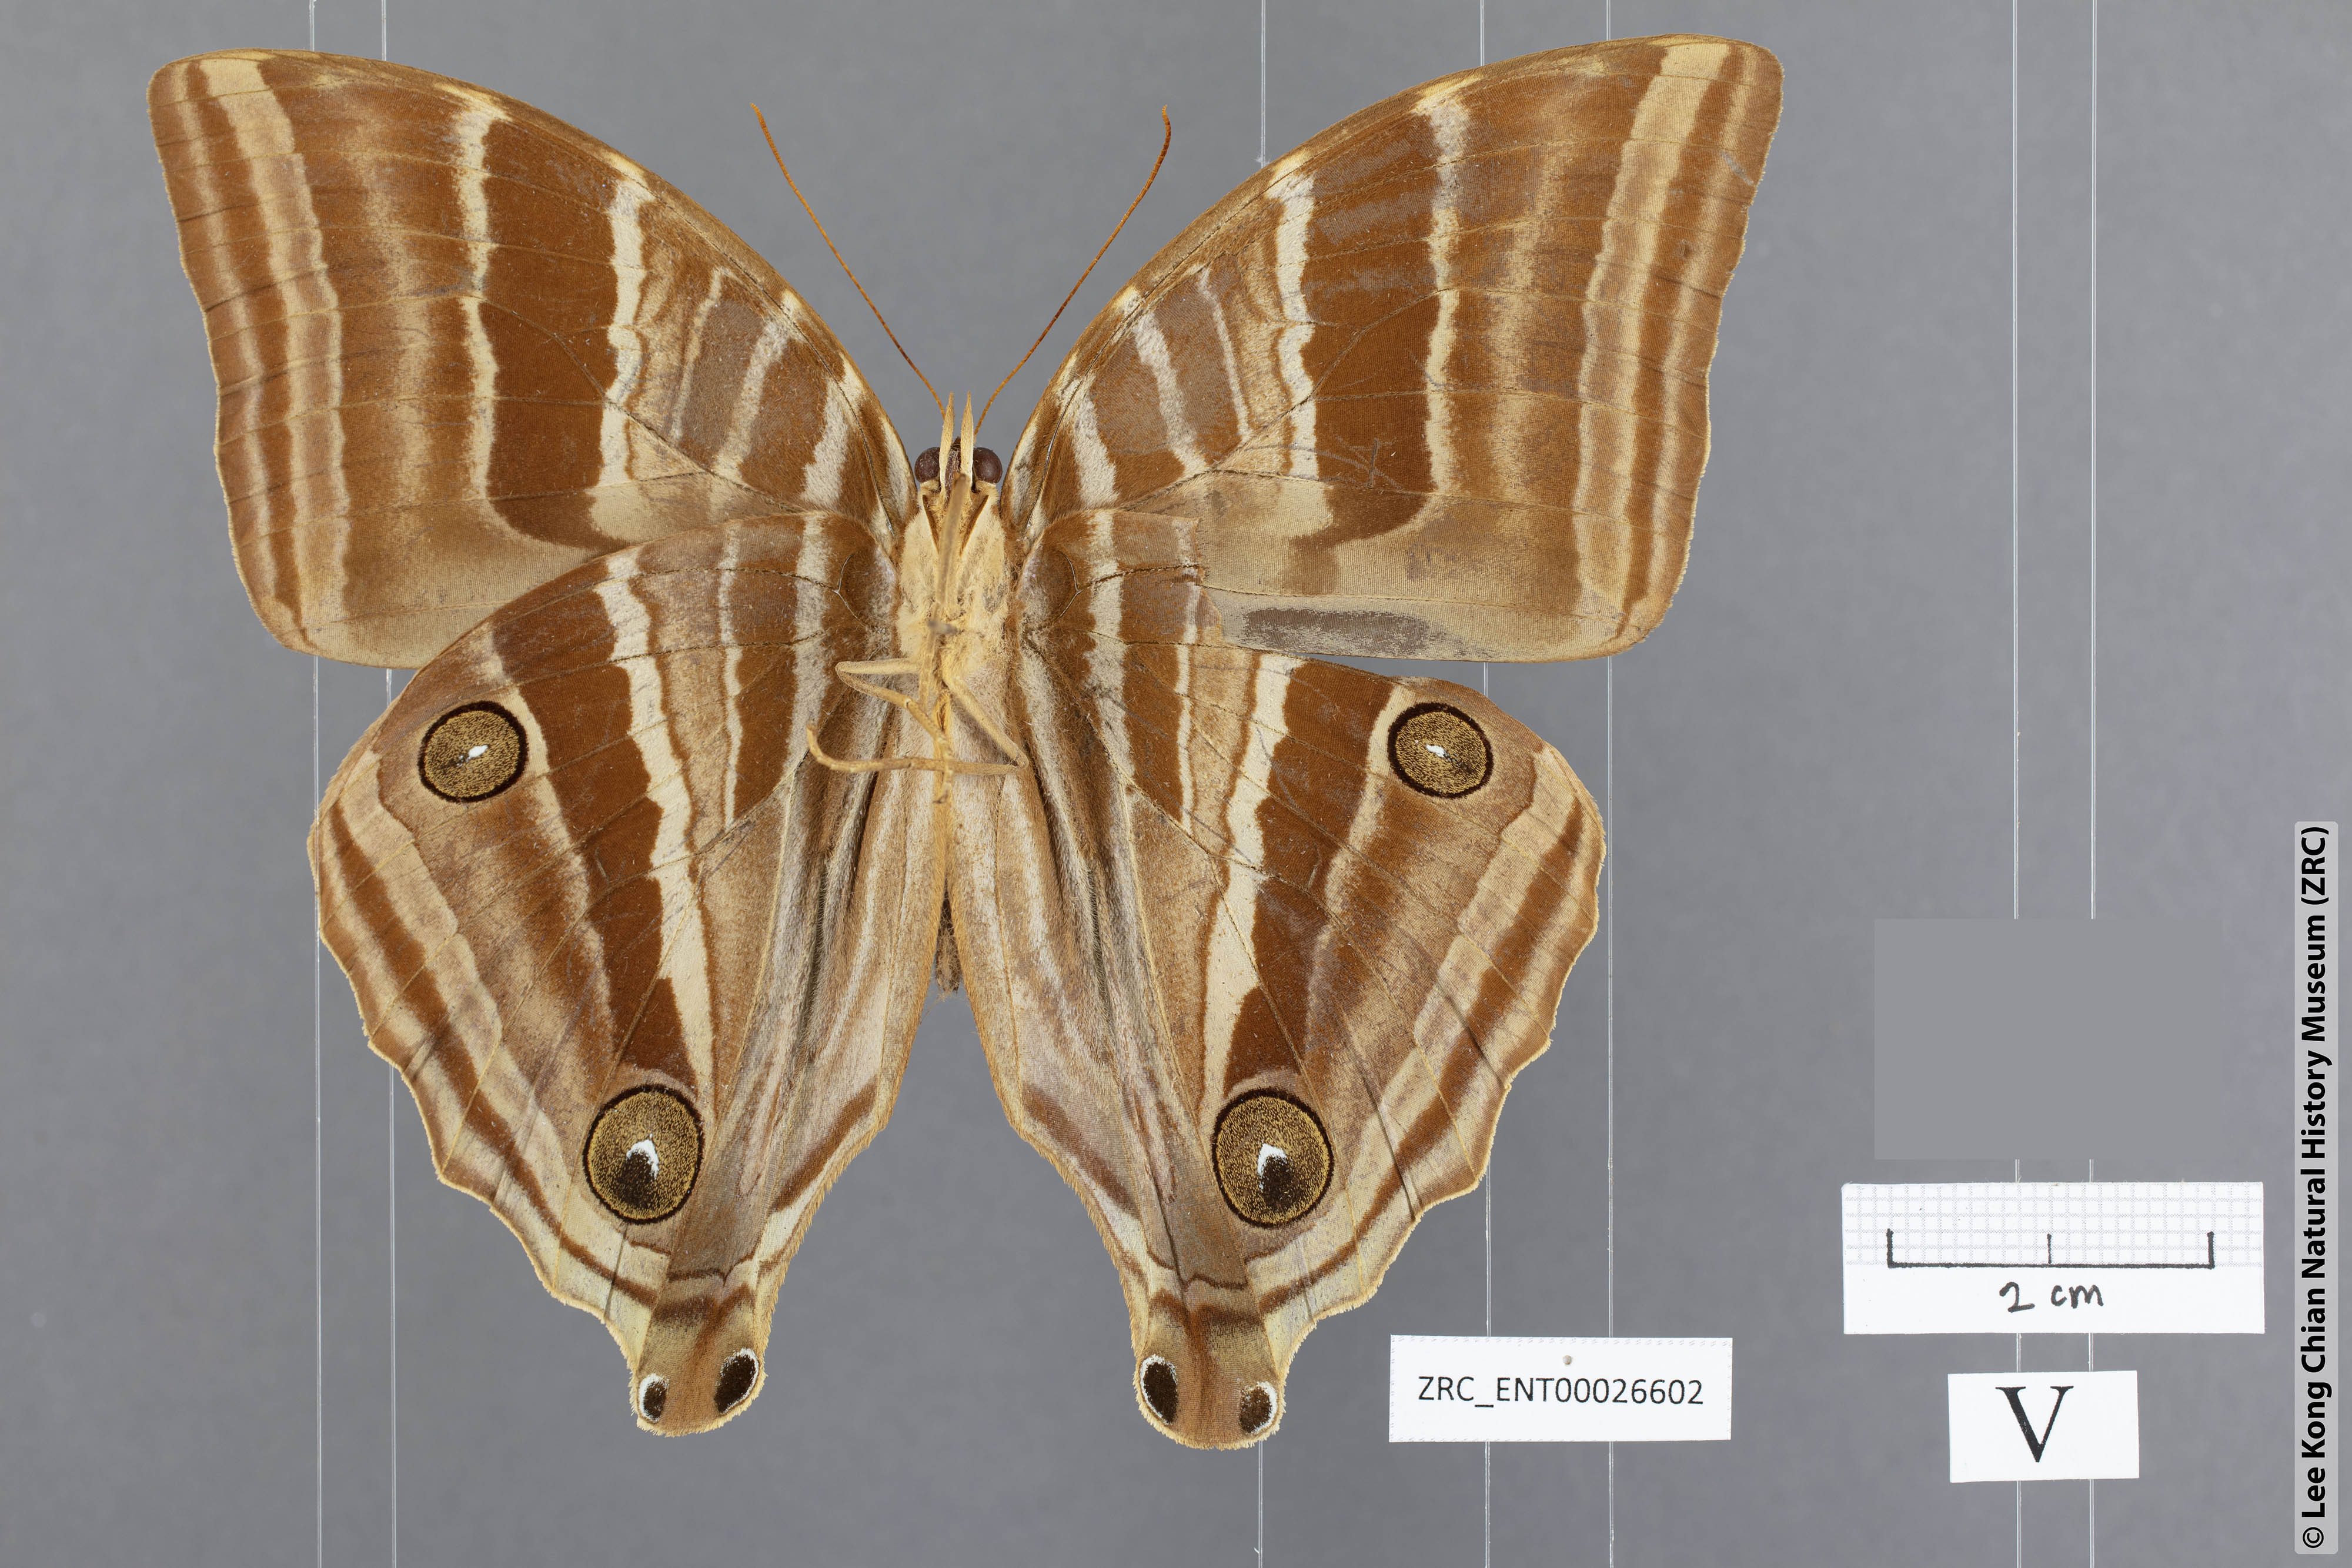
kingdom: Animalia
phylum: Arthropoda
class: Insecta
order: Lepidoptera
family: Nymphalidae
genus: Amathusia
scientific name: Amathusia friderici
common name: Bicolor-haired palm king
